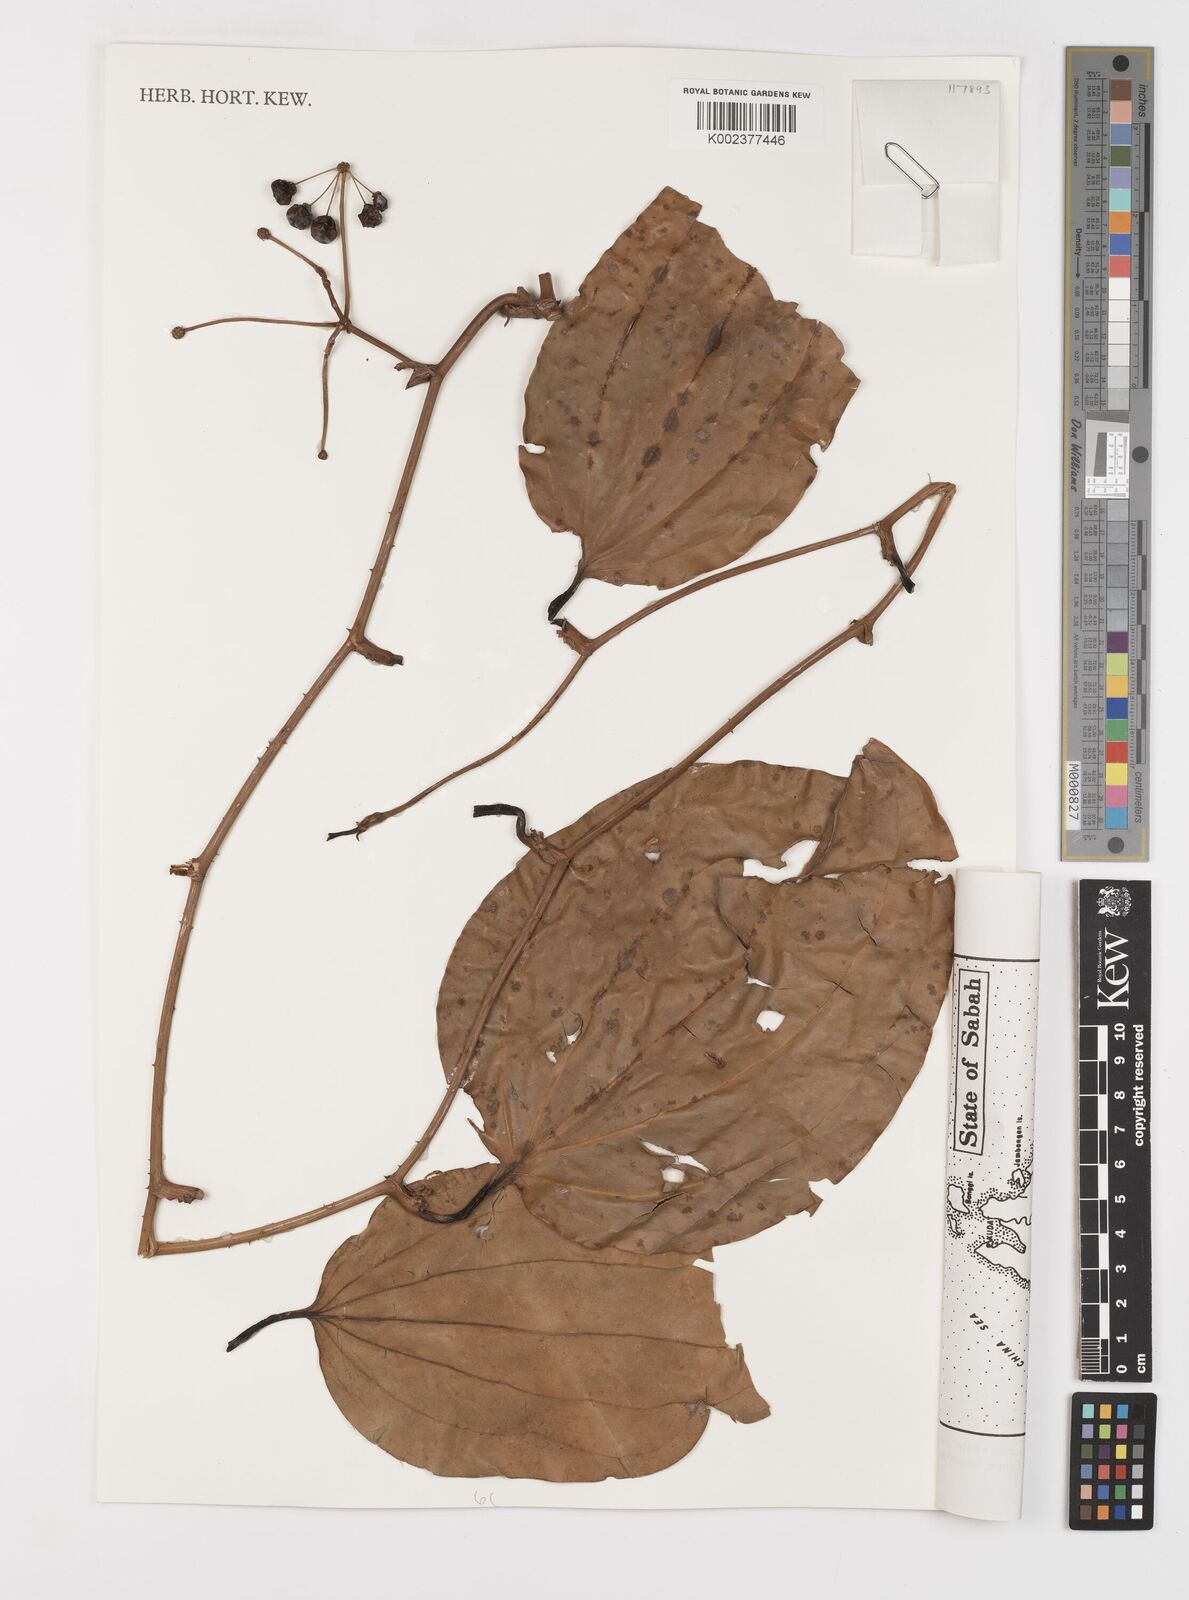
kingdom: Plantae
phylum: Tracheophyta
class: Liliopsida
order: Liliales
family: Smilacaceae
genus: Smilax
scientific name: Smilax borneensis
